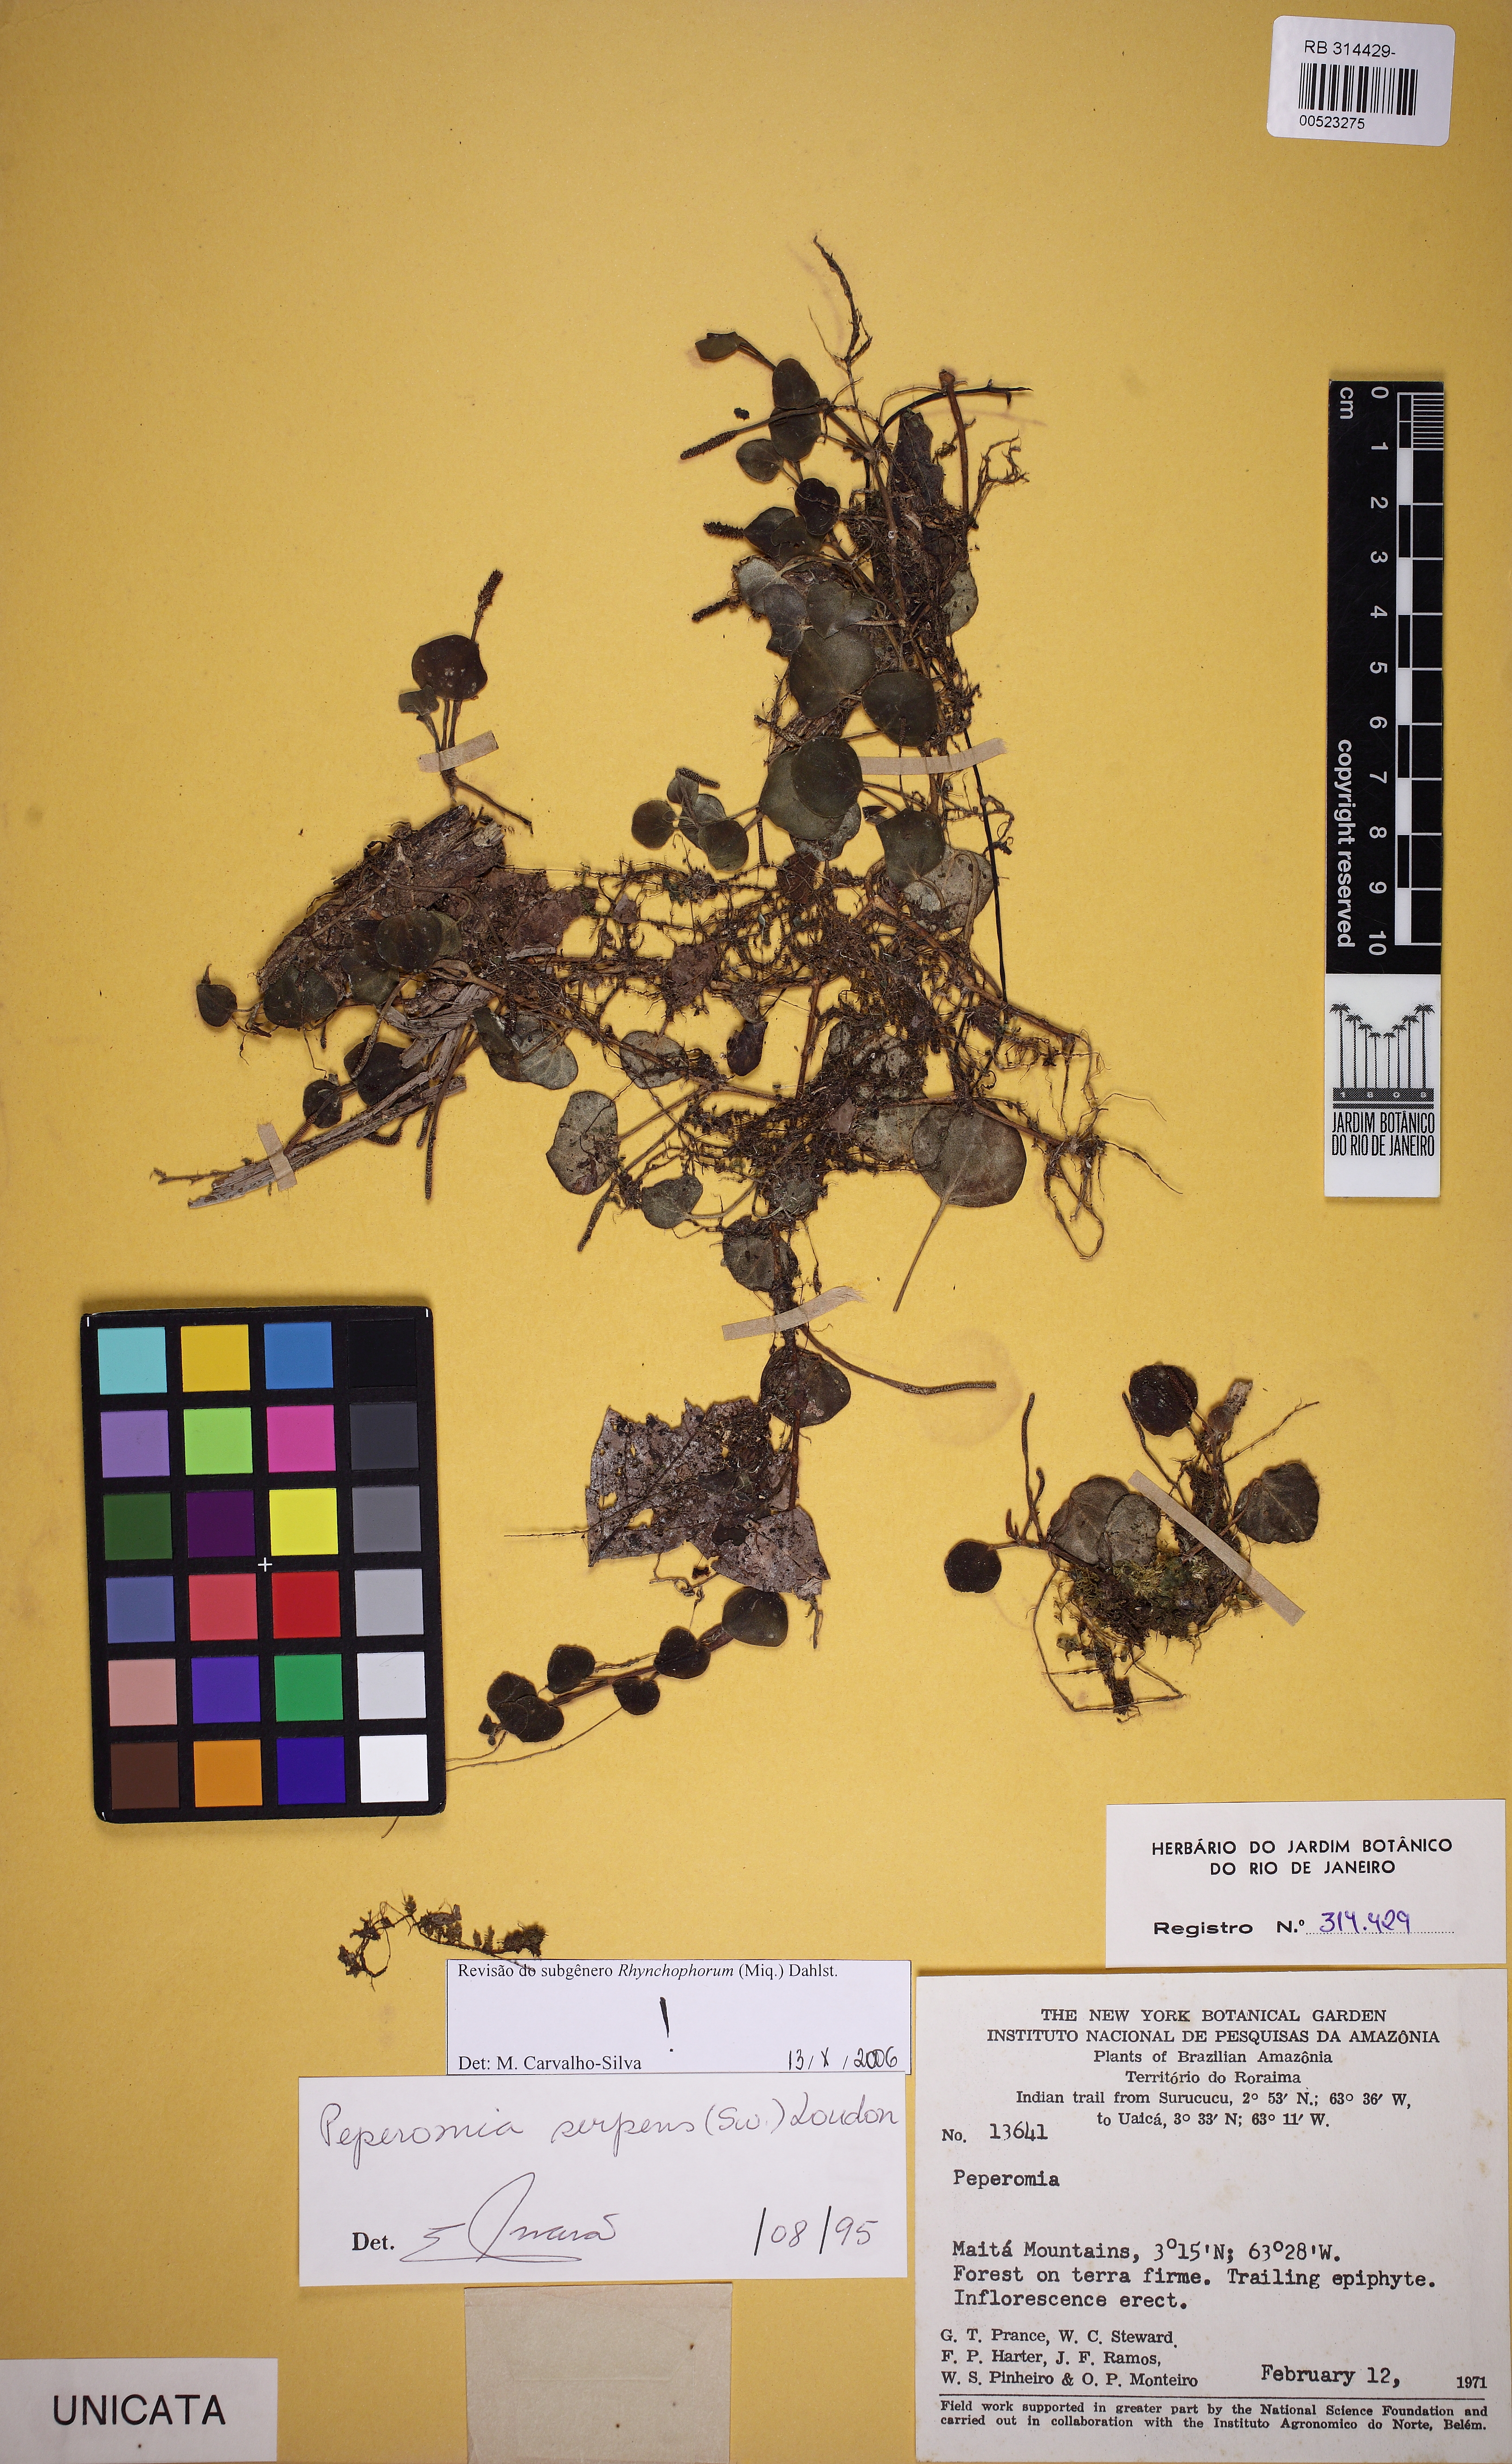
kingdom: Plantae
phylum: Tracheophyta
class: Magnoliopsida
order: Piperales
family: Piperaceae
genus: Peperomia
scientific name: Peperomia serpens
